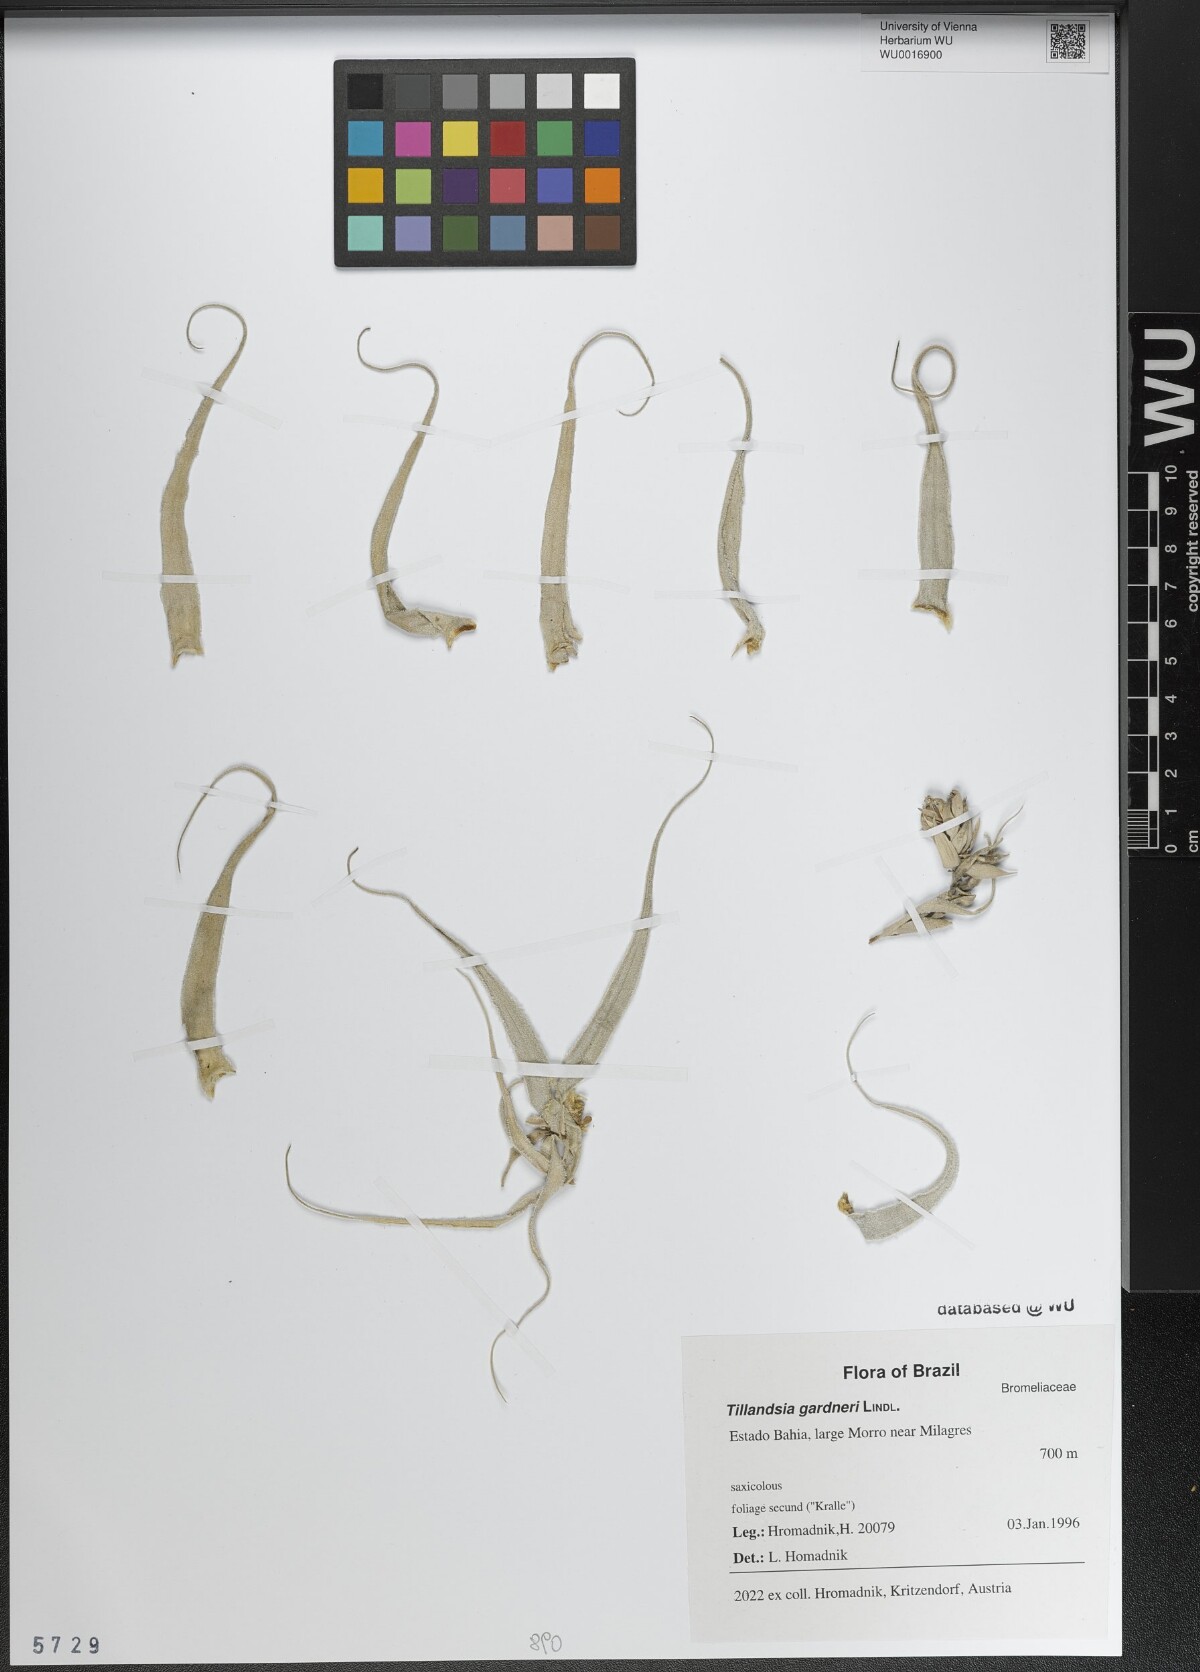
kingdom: Plantae
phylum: Tracheophyta
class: Liliopsida
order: Poales
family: Bromeliaceae
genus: Tillandsia
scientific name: Tillandsia gardneri
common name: Airplant
